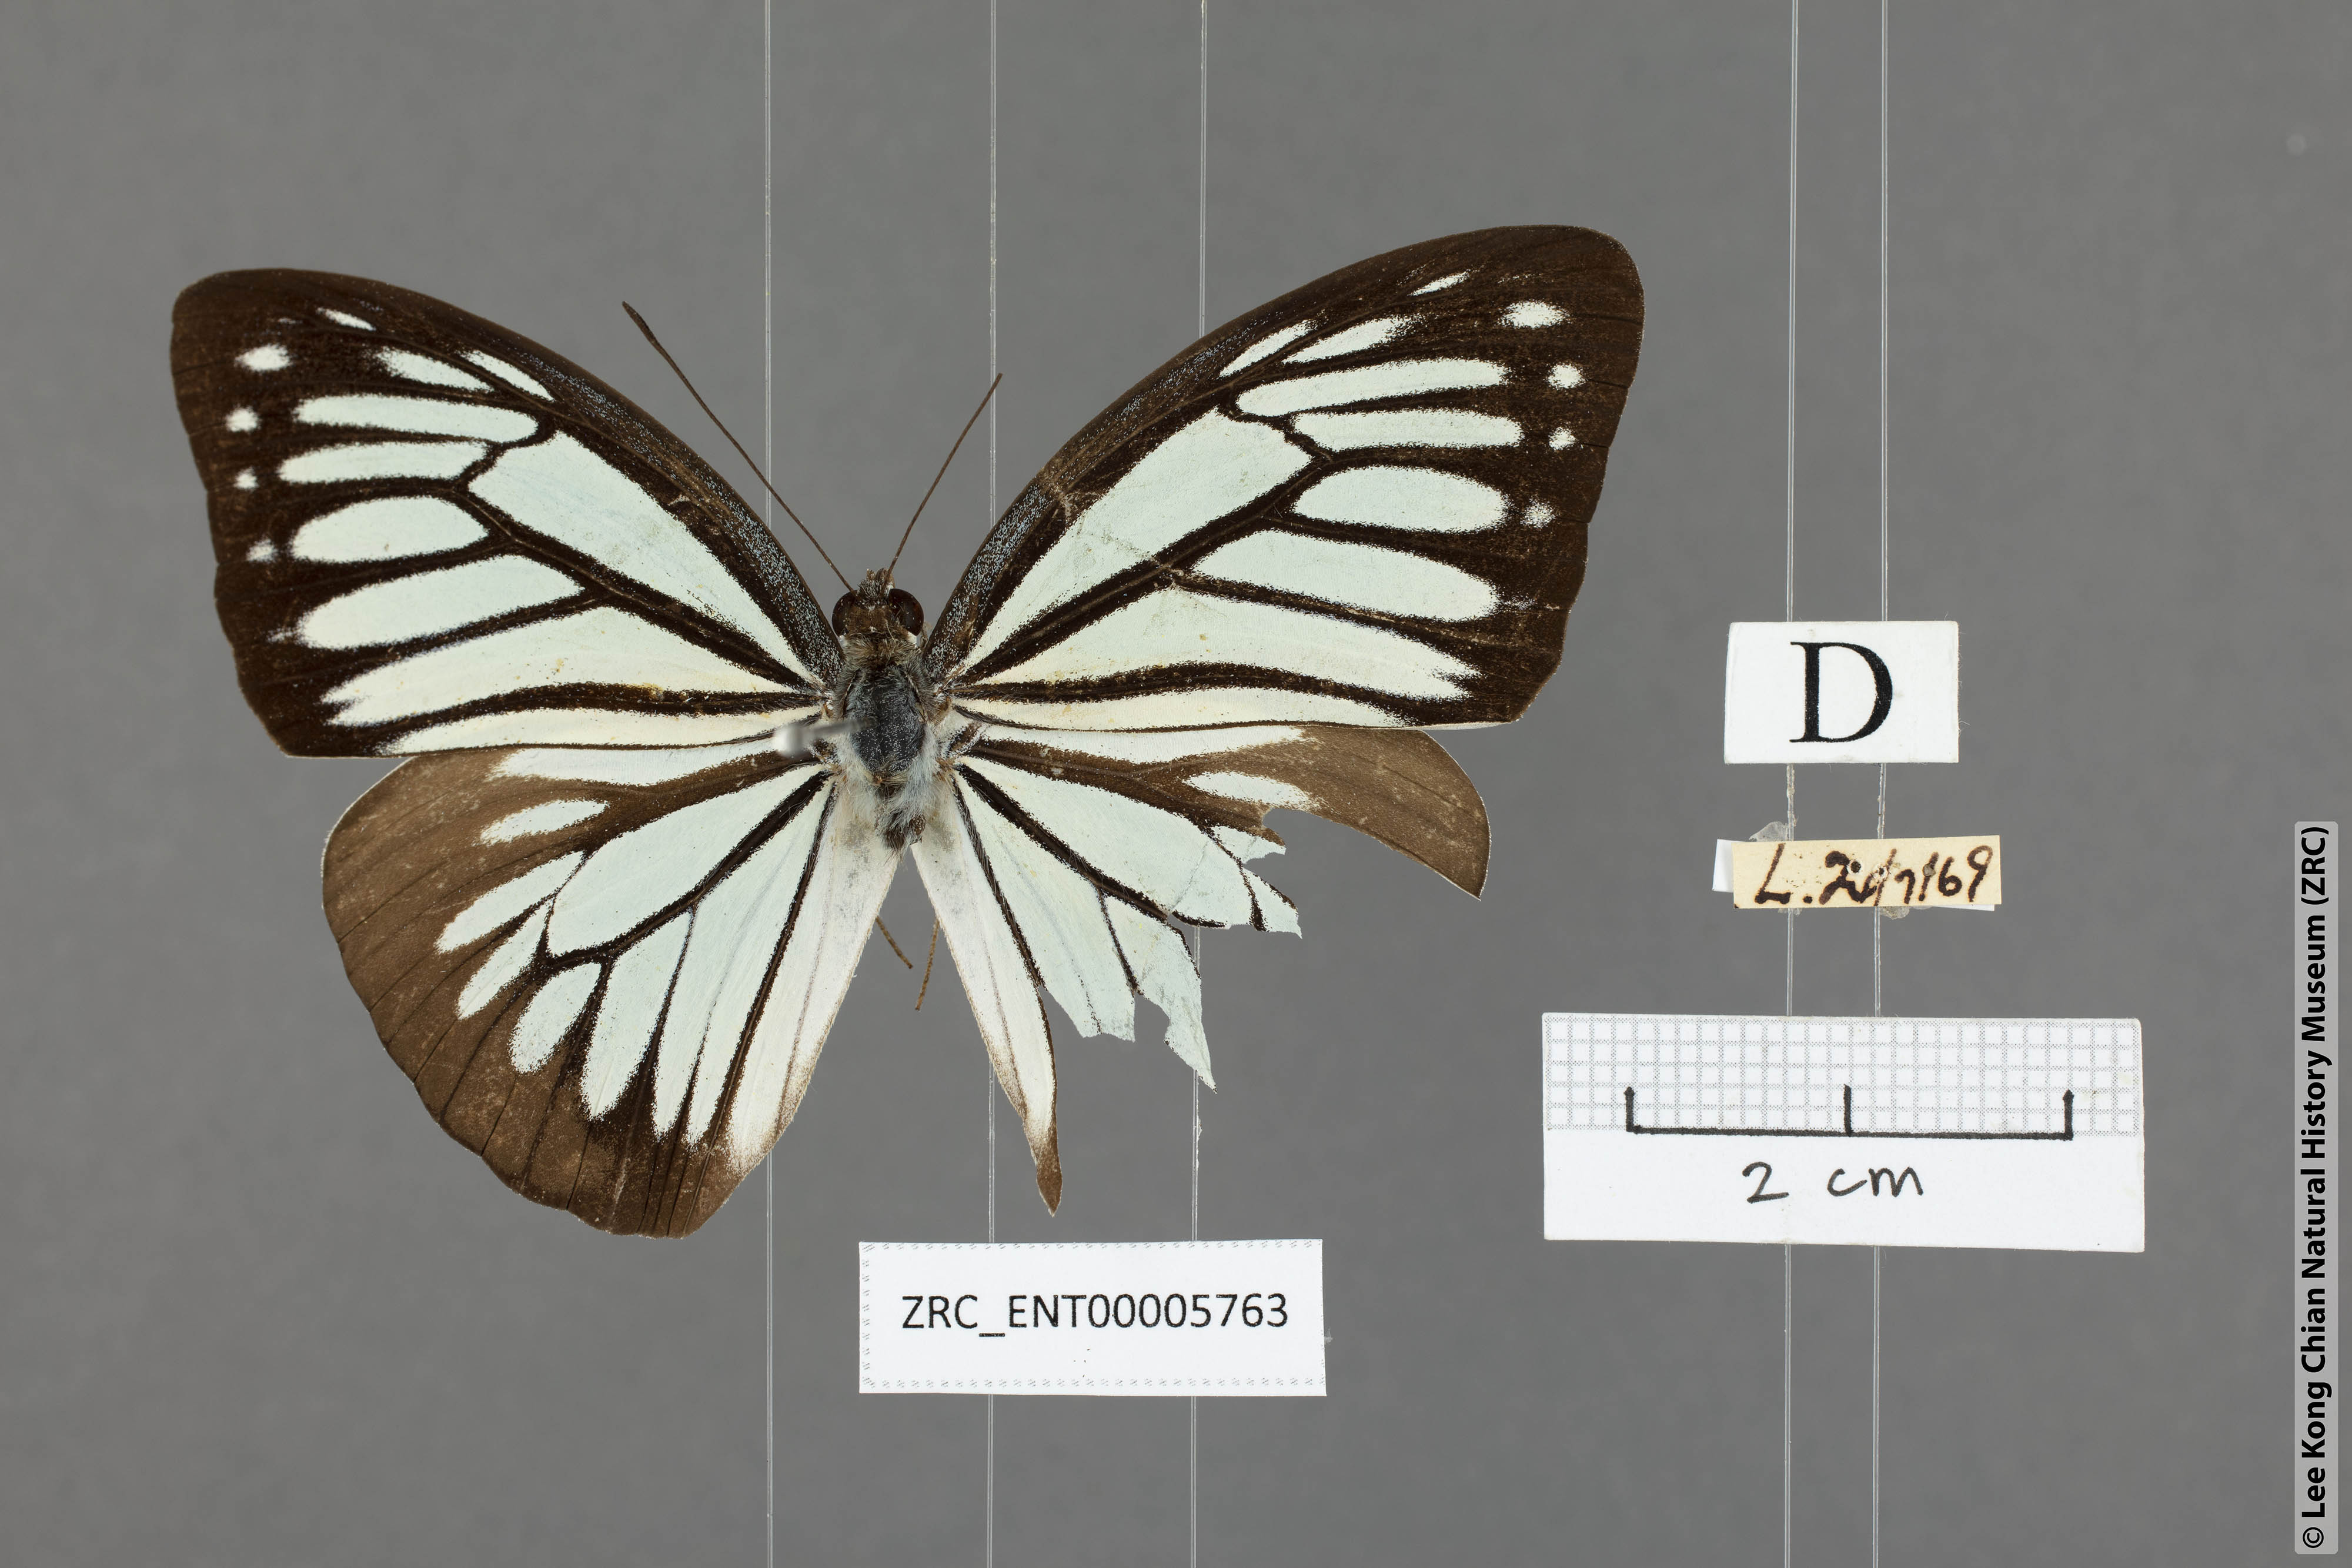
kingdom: Animalia
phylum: Arthropoda
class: Insecta
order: Lepidoptera
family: Pieridae
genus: Pareronia
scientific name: Pareronia anais
